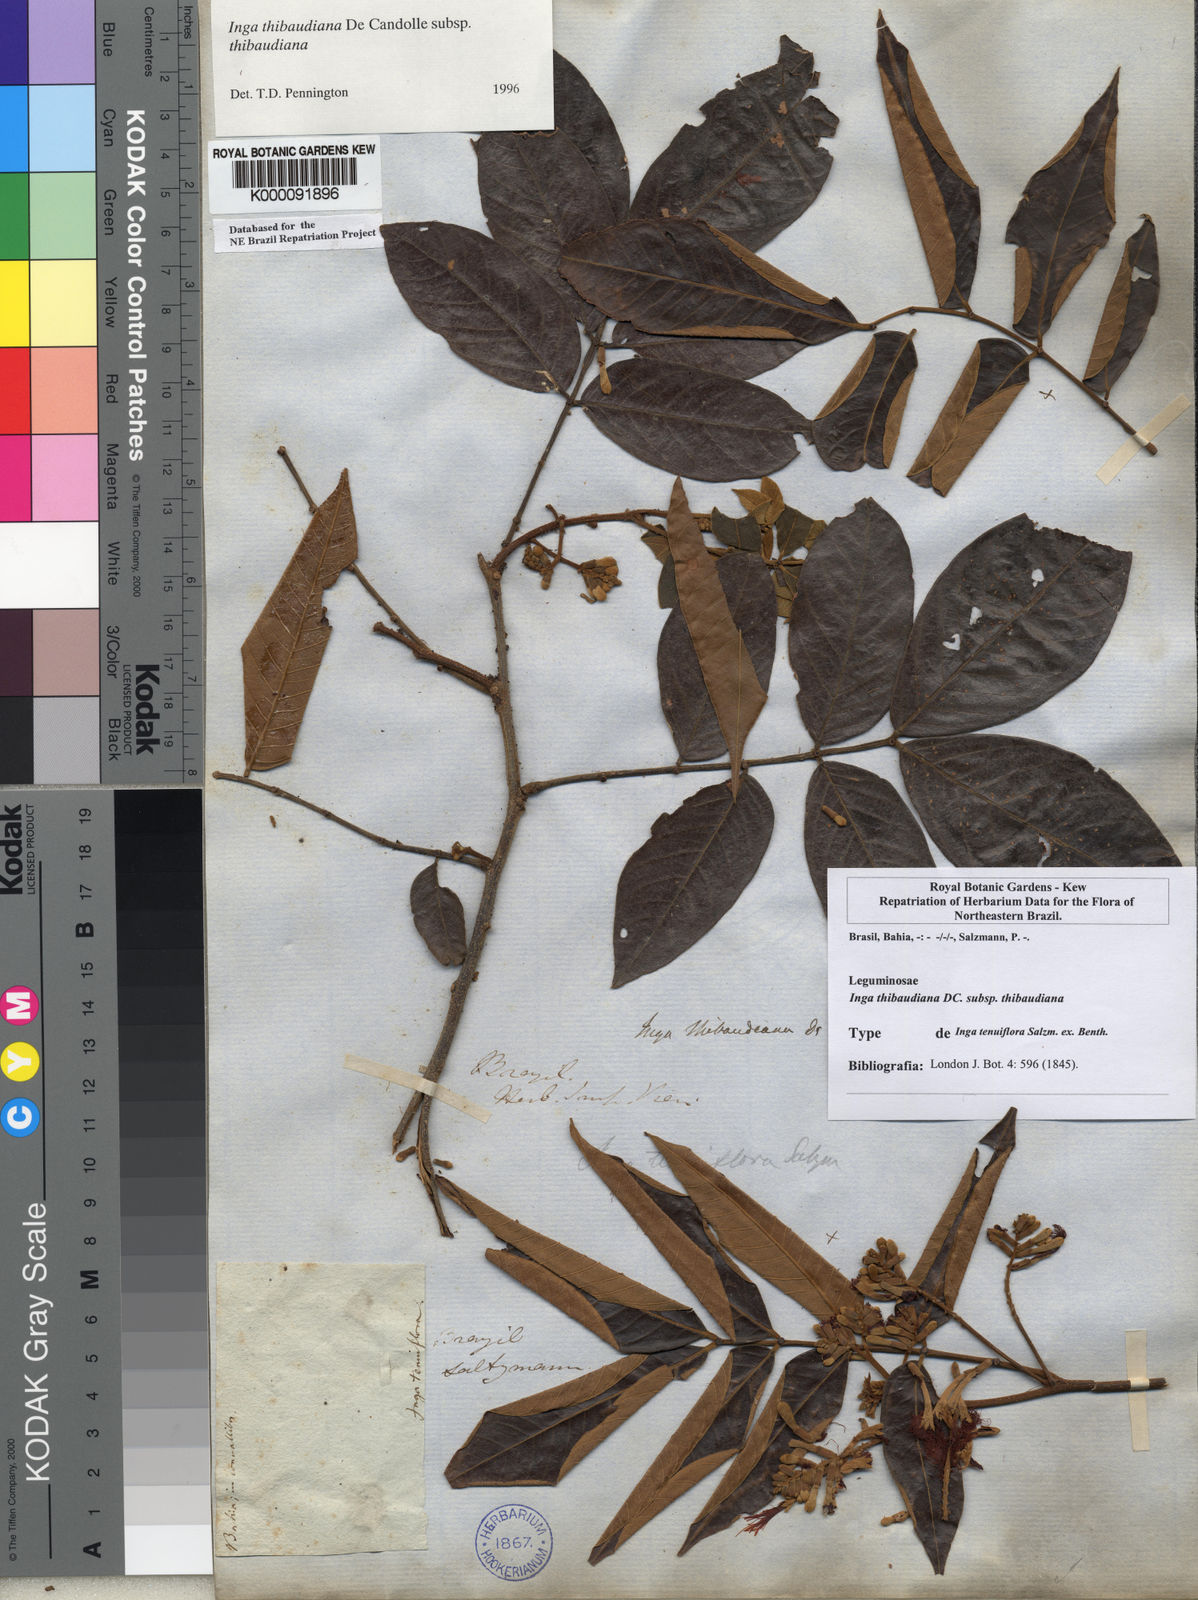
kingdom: Plantae
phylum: Tracheophyta
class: Magnoliopsida
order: Fabales
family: Fabaceae
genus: Inga
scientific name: Inga thibaudiana
